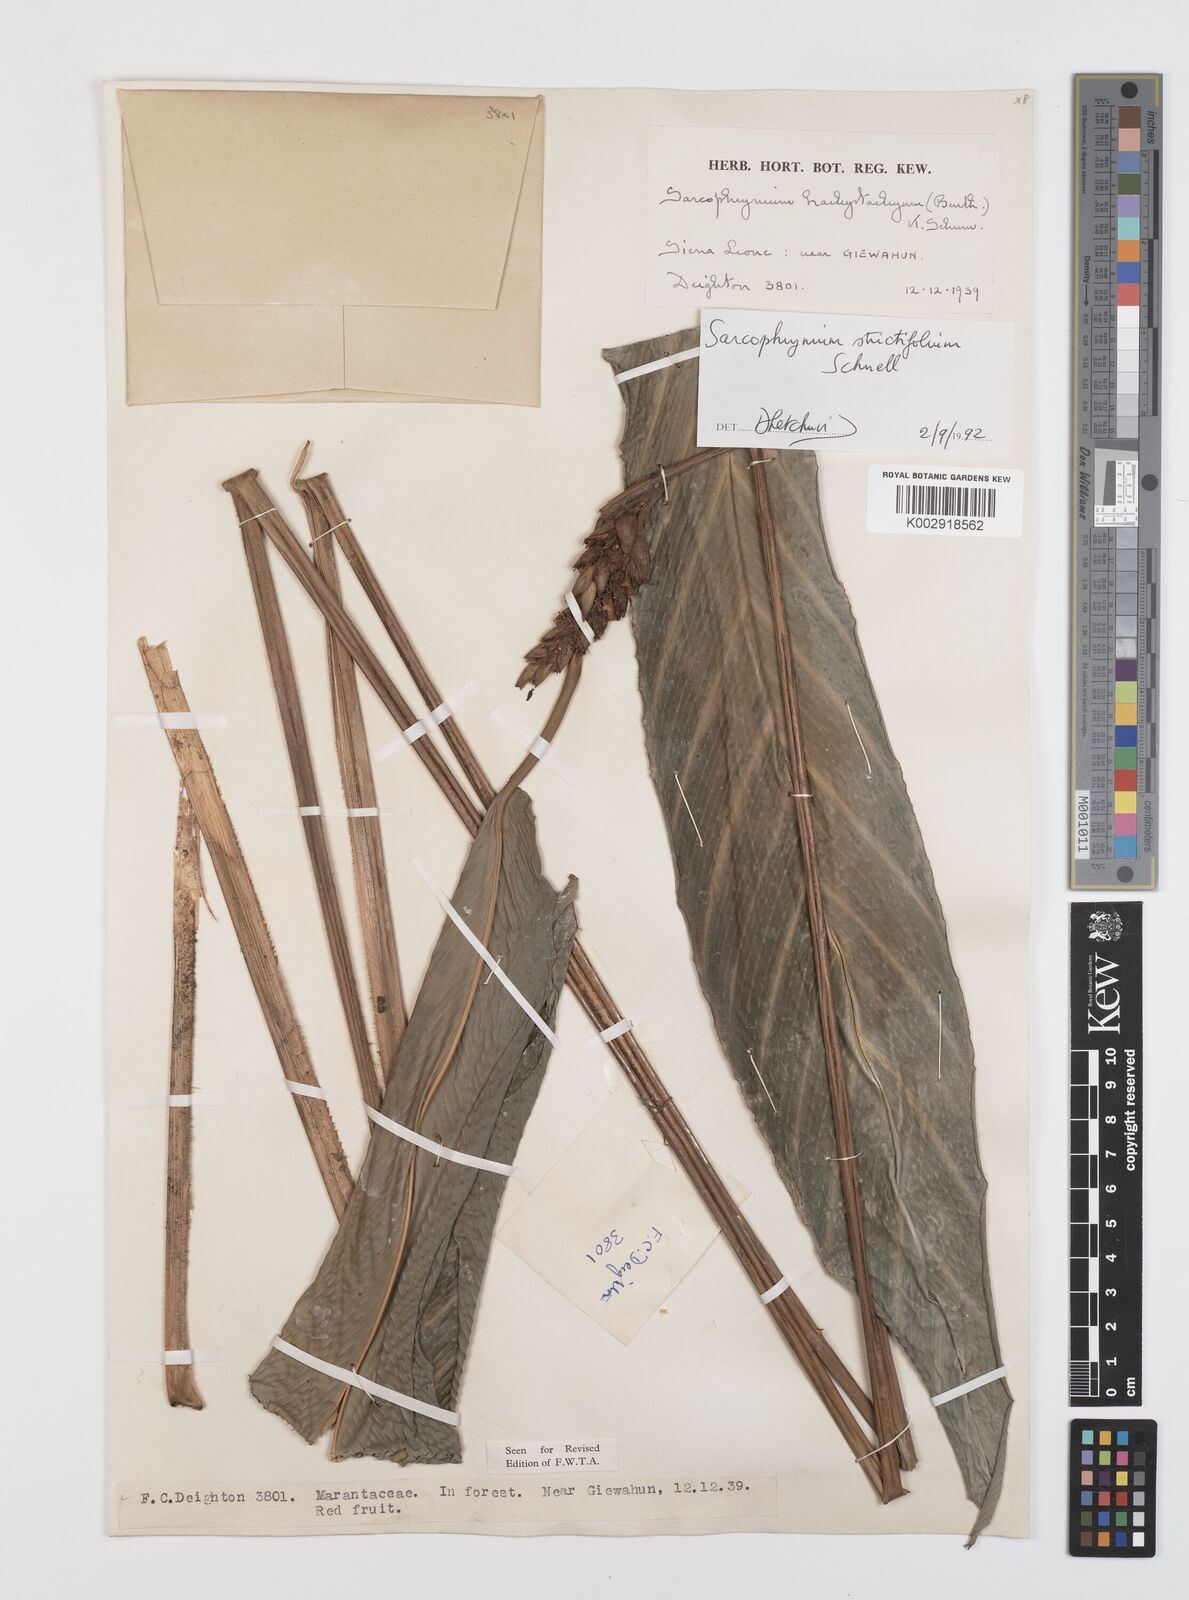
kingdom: Plantae
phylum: Tracheophyta
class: Liliopsida
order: Zingiberales
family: Marantaceae
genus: Sarcophrynium
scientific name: Sarcophrynium brachystachyum
